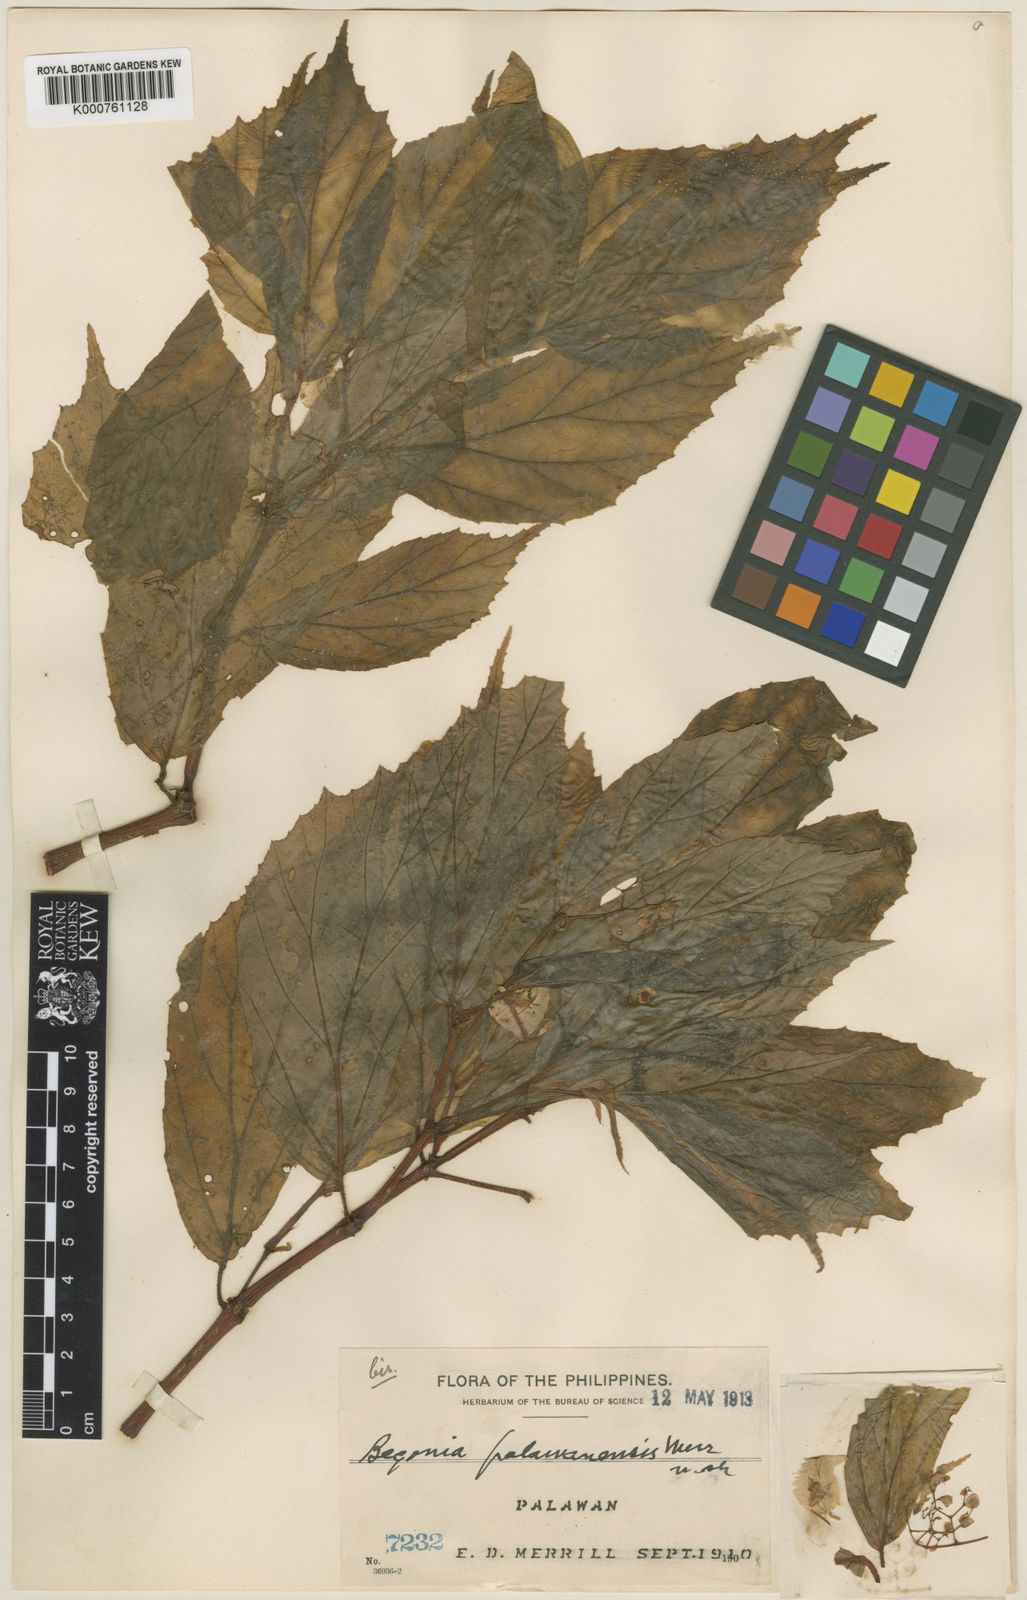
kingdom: Plantae
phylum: Tracheophyta
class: Magnoliopsida
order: Cucurbitales
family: Begoniaceae
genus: Begonia
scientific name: Begonia palawanensis
